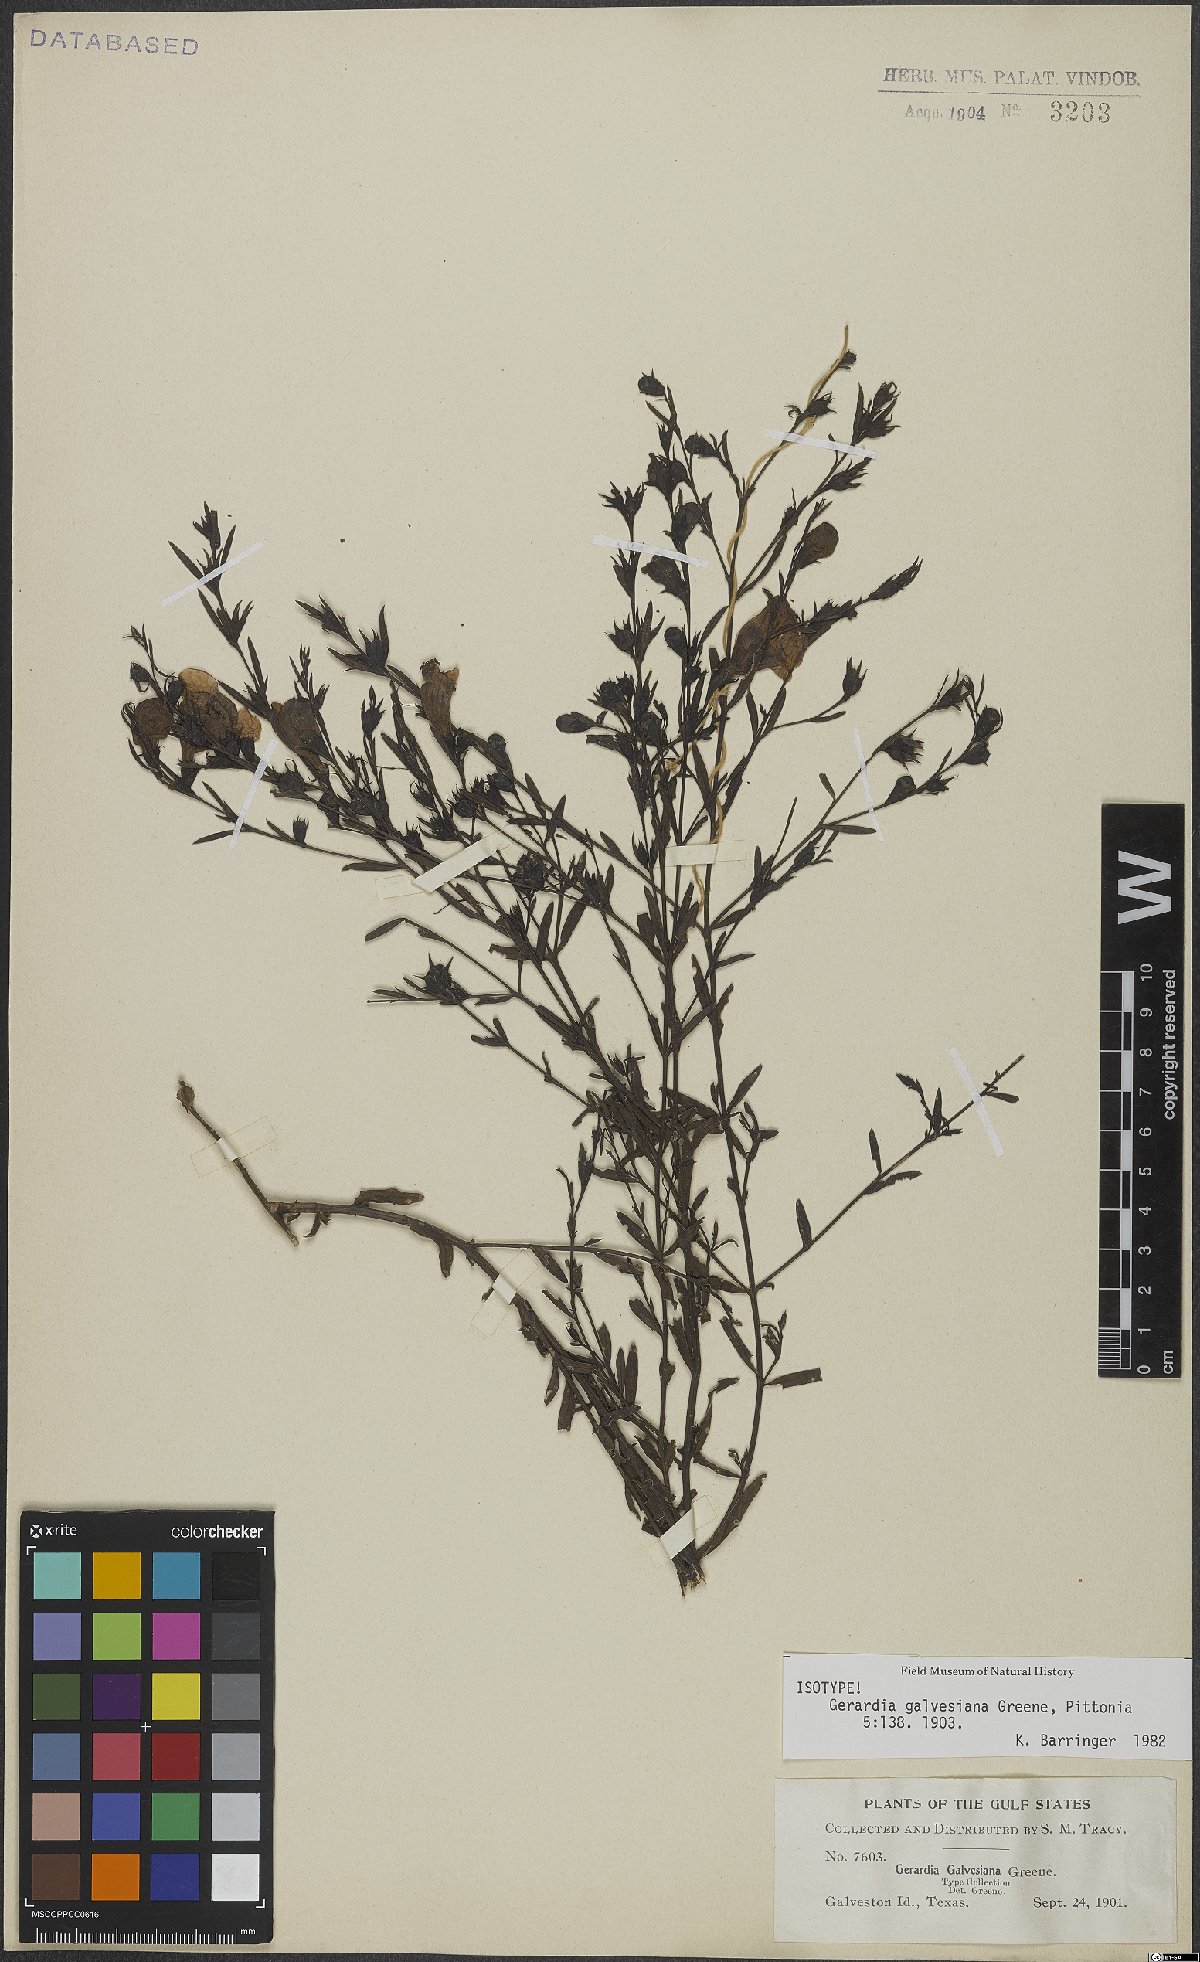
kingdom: Plantae
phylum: Tracheophyta
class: Magnoliopsida
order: Lamiales
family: Orobanchaceae
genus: Agalinis
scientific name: Agalinis fasciculata
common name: Beach false foxglove
